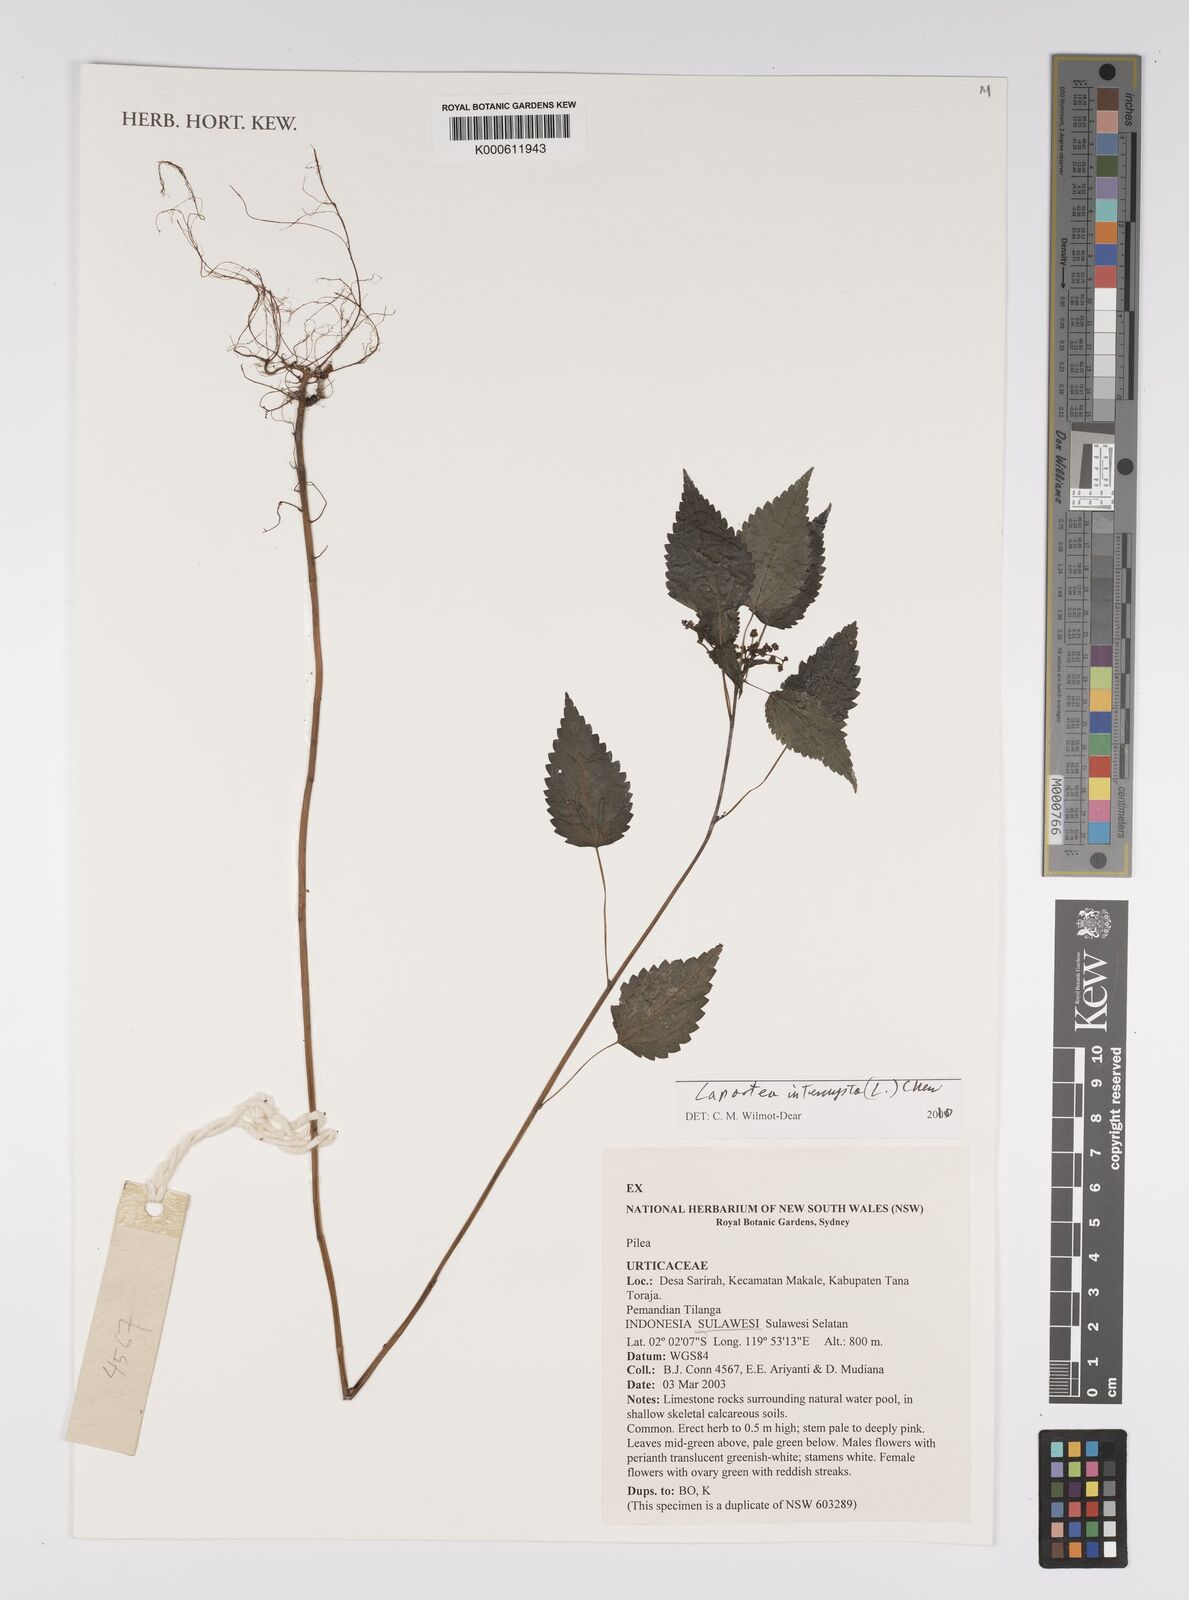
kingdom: Plantae
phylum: Tracheophyta
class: Magnoliopsida
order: Rosales
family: Urticaceae
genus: Laportea
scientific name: Laportea interrupta
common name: Hawaiian wood-nettle
